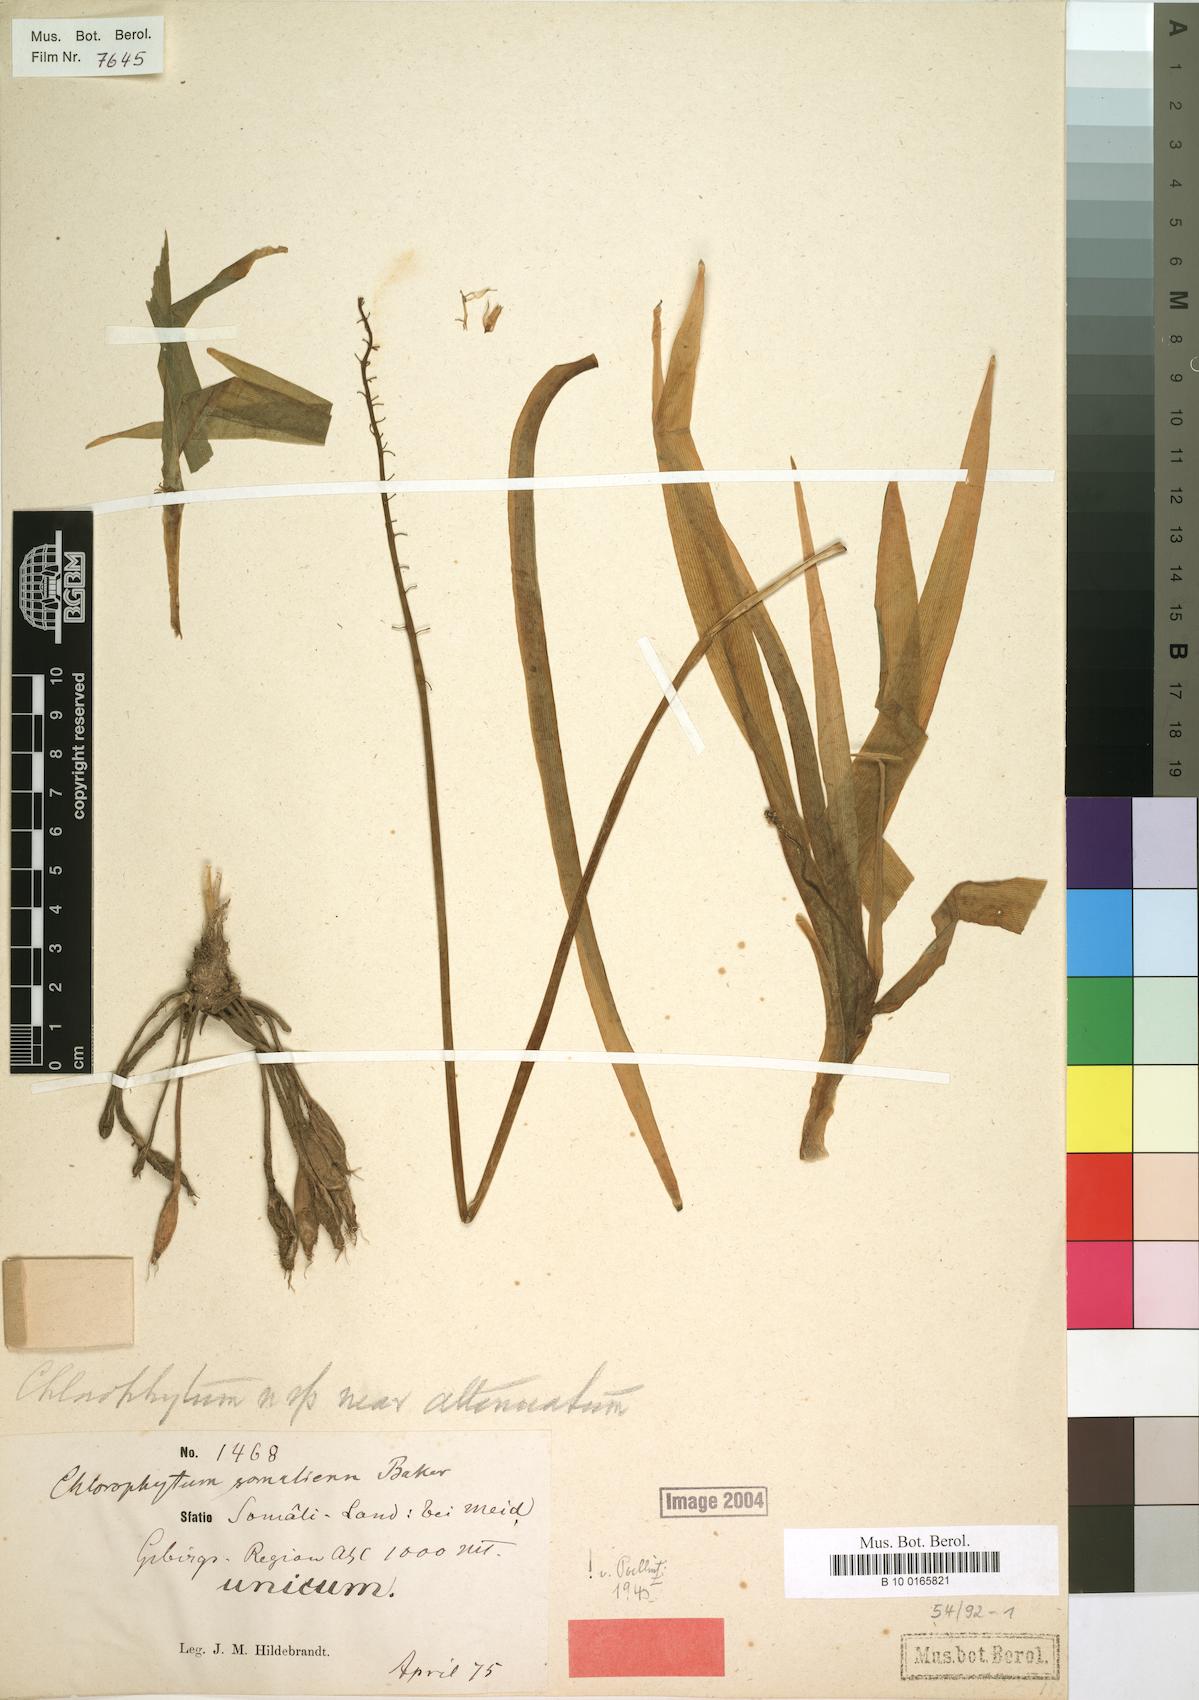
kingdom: Plantae
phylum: Tracheophyta
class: Liliopsida
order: Asparagales
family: Asparagaceae
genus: Chlorophytum
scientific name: Chlorophytum somaliense
